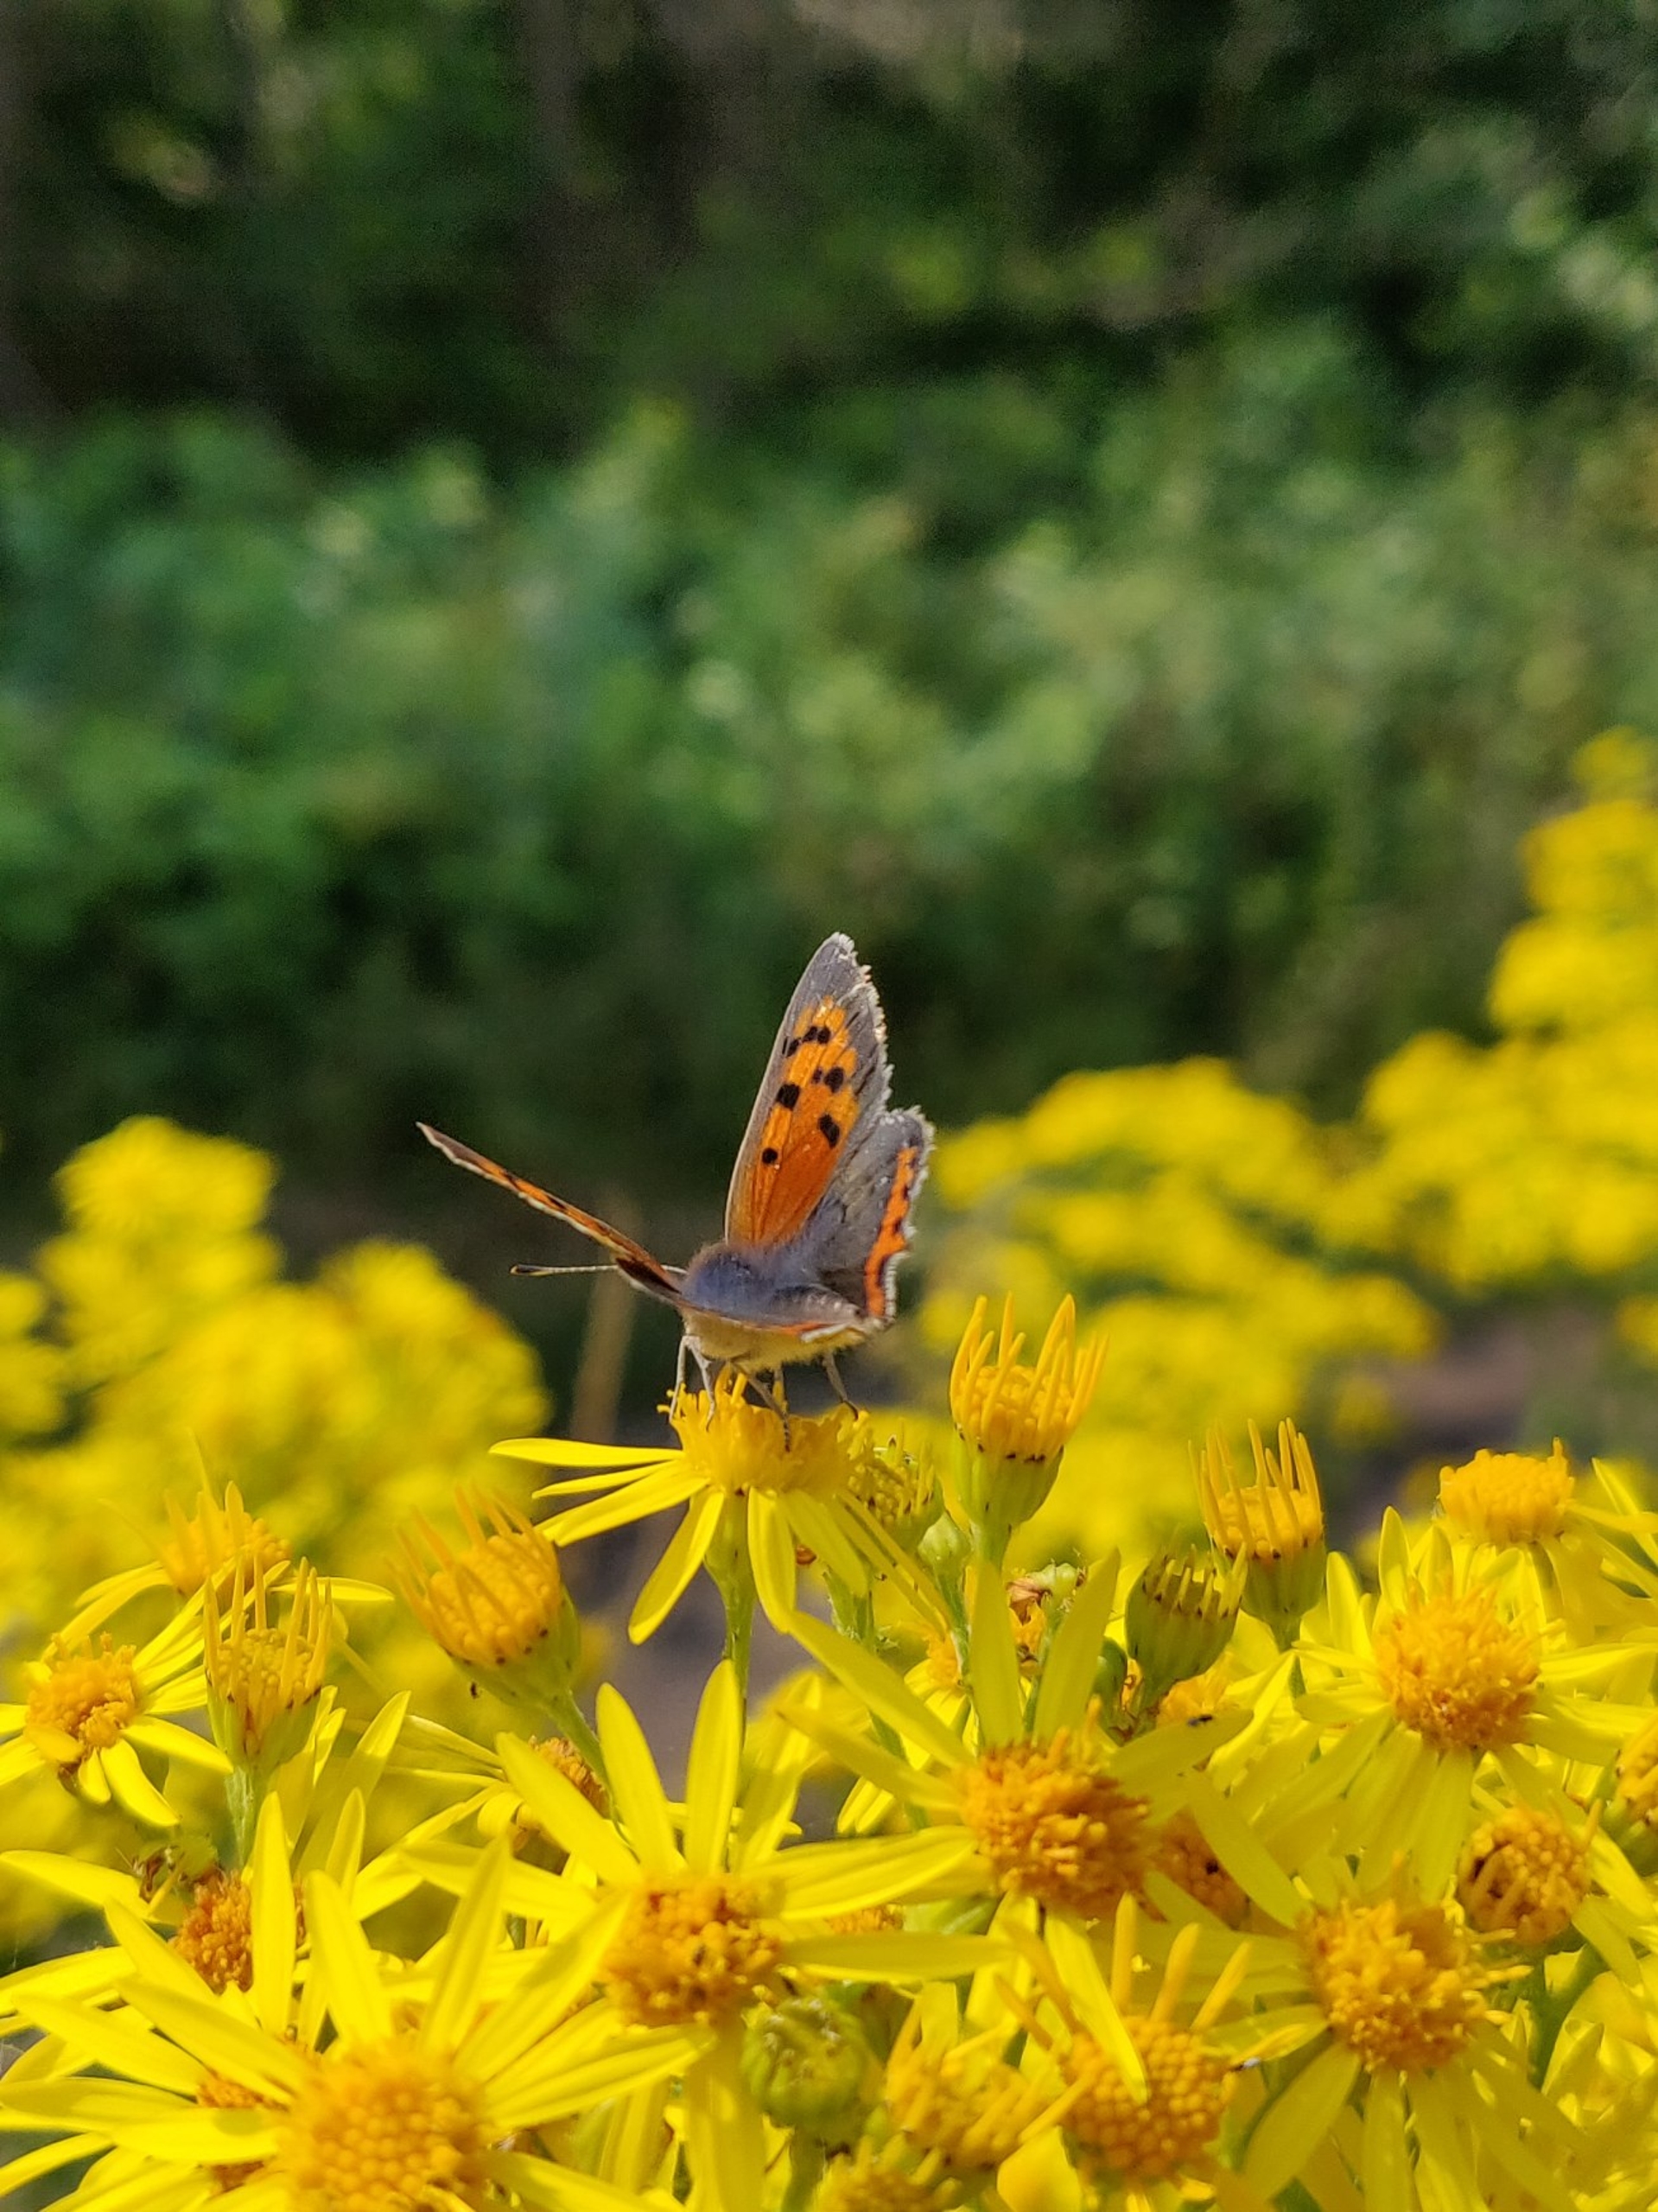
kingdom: Animalia
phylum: Arthropoda
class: Insecta
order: Lepidoptera
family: Lycaenidae
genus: Lycaena
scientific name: Lycaena phlaeas
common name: Lille ildfugl
